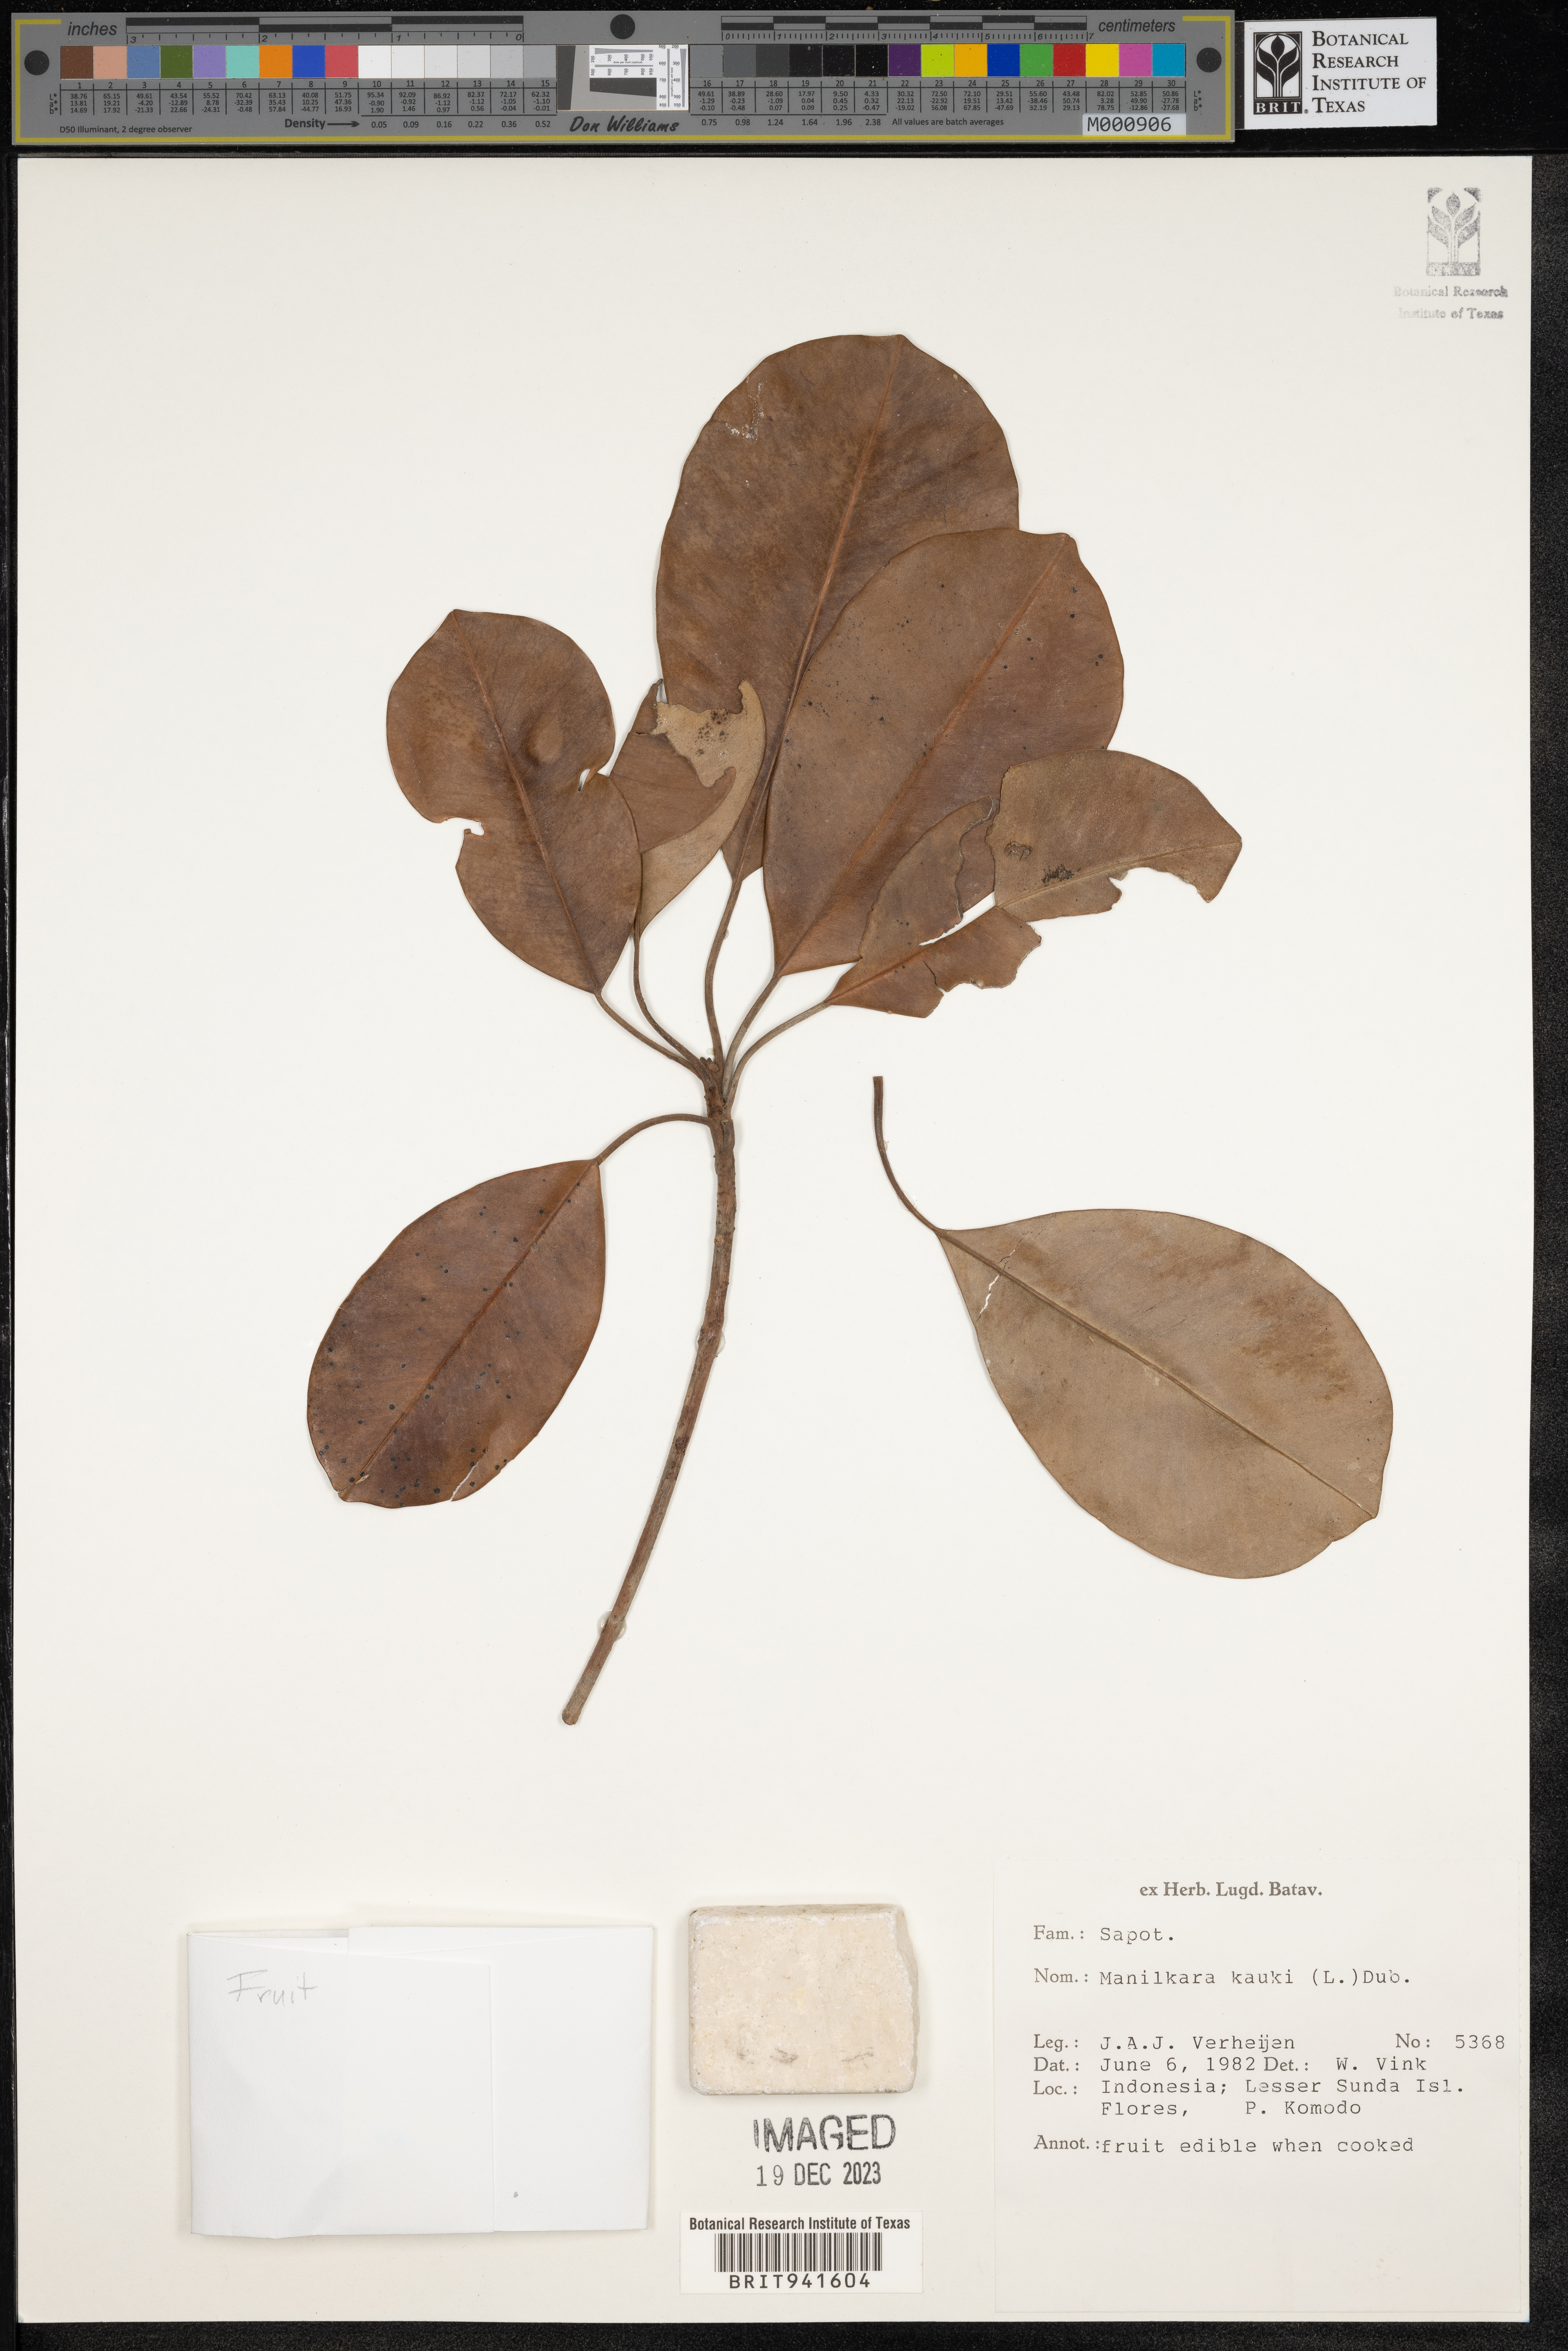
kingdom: Plantae
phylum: Tracheophyta
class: Magnoliopsida
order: Ericales
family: Sapotaceae
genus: Manilkara
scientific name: Manilkara
